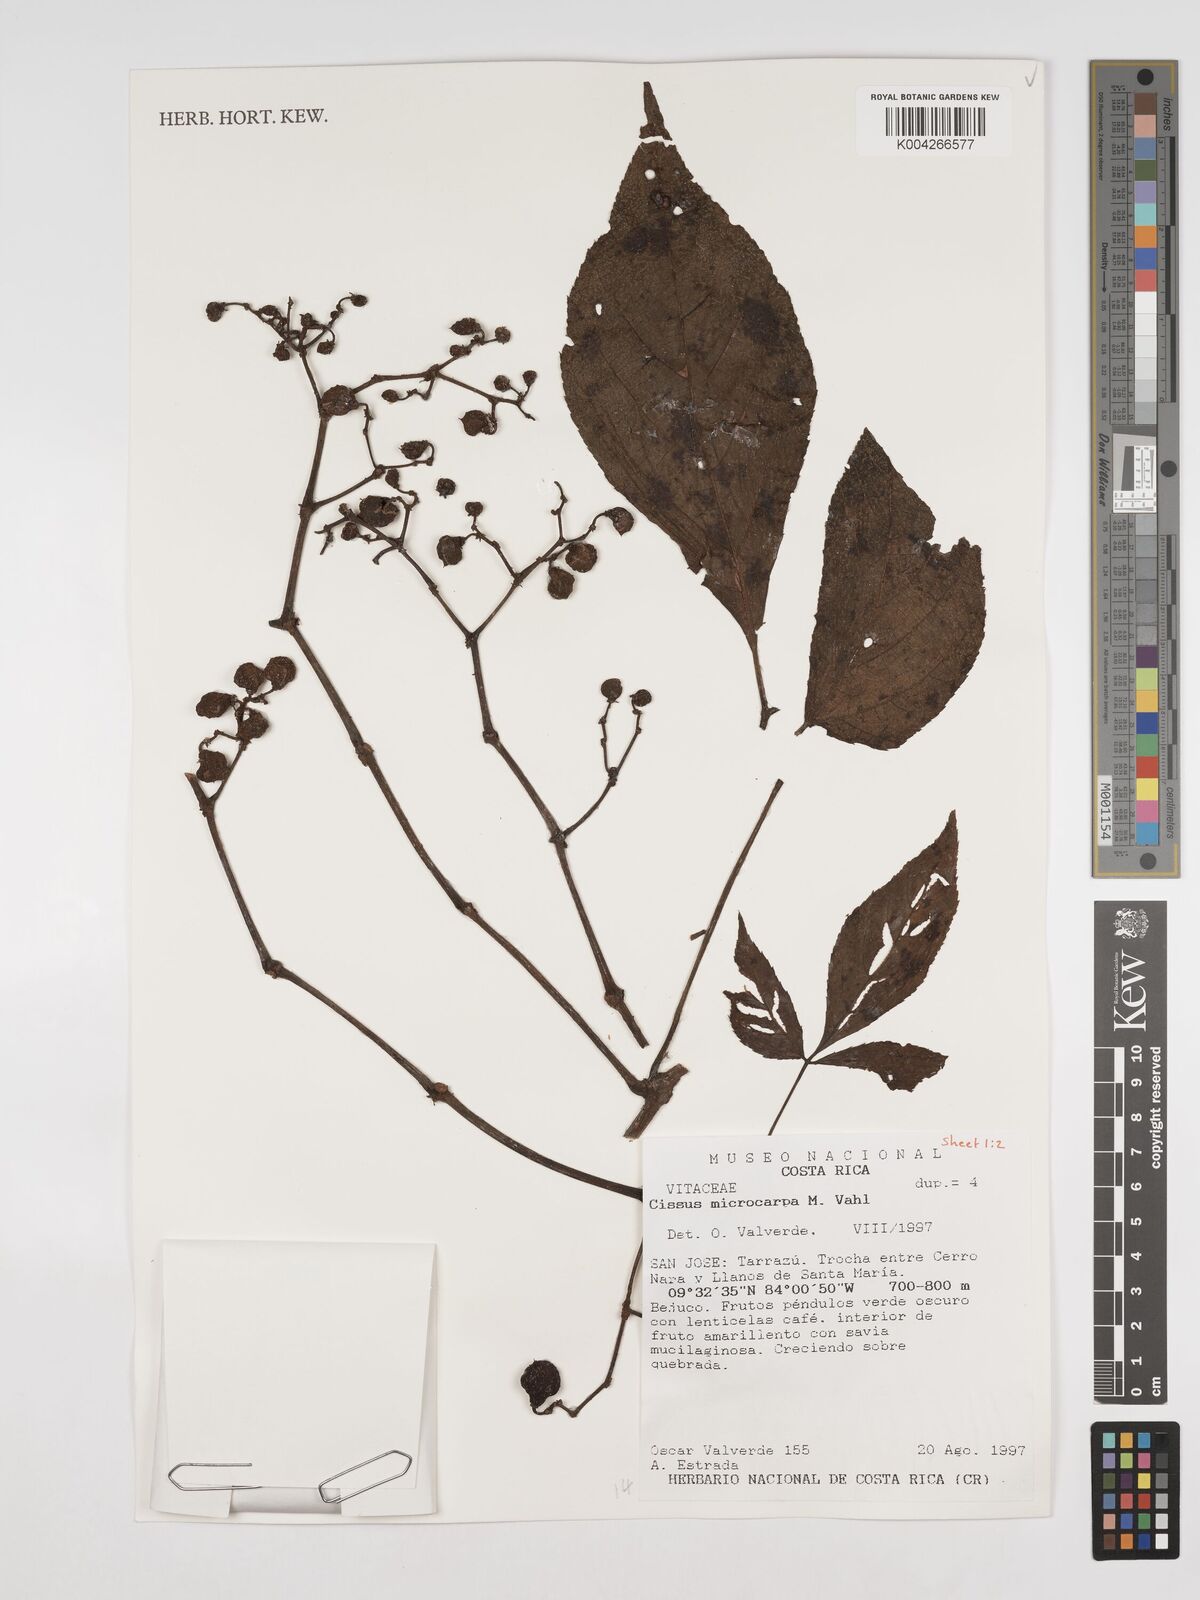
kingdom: Plantae
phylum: Tracheophyta
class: Magnoliopsida
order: Vitales
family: Vitaceae
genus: Cissus
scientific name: Cissus microcarpa
